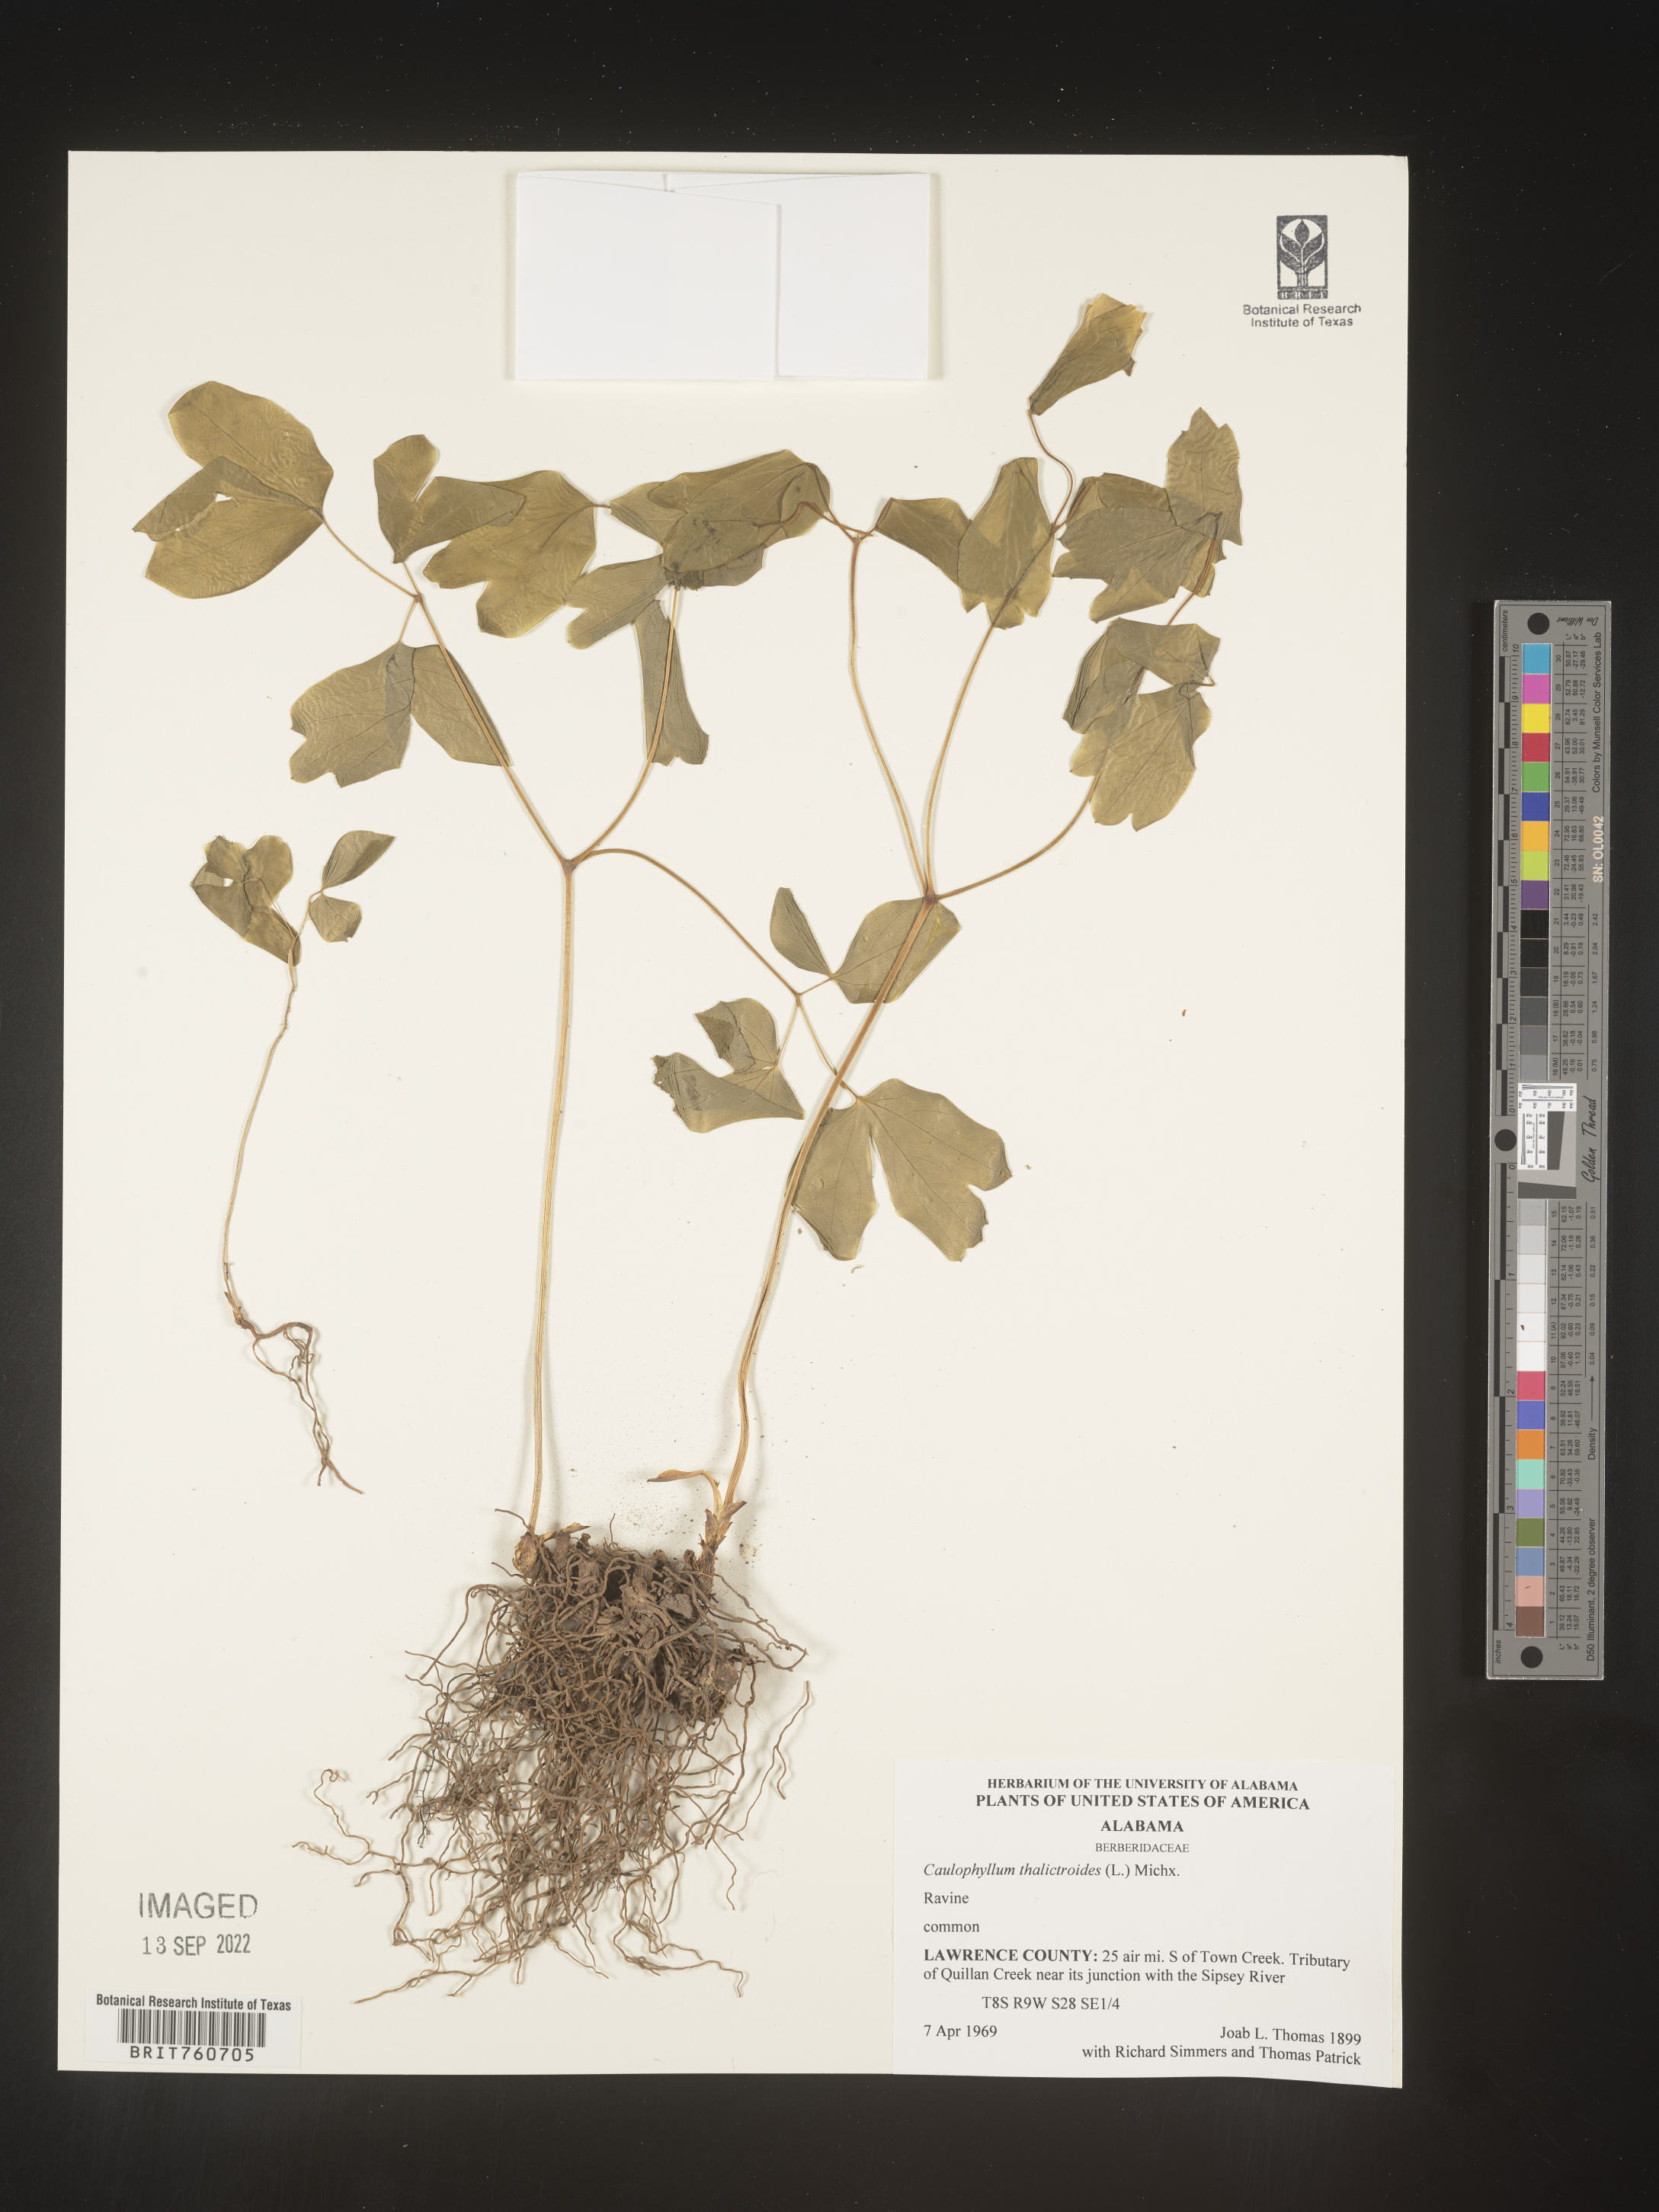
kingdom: Plantae
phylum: Tracheophyta
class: Magnoliopsida
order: Ranunculales
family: Berberidaceae
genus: Caulophyllum
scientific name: Caulophyllum thalictroides
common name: Blue cohosh
